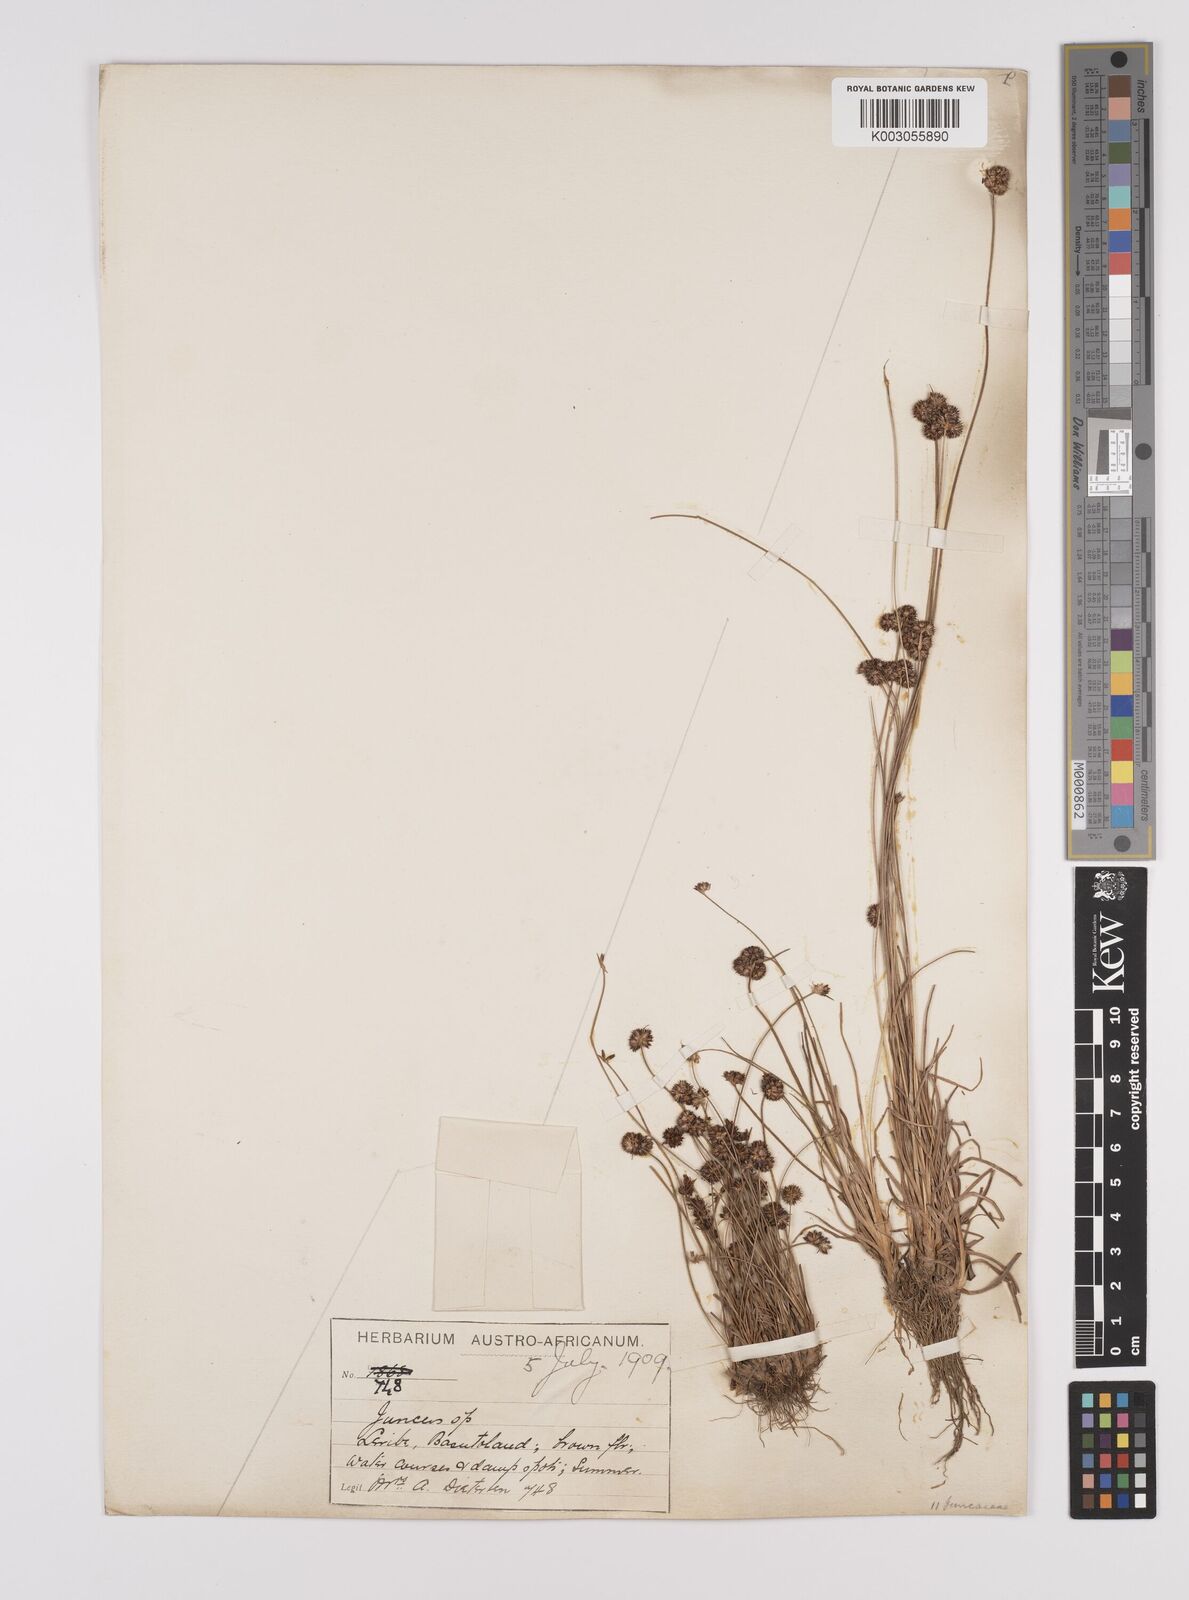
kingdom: Plantae
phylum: Tracheophyta
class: Liliopsida
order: Poales
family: Juncaceae
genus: Juncus
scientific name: Juncus dregeanus
